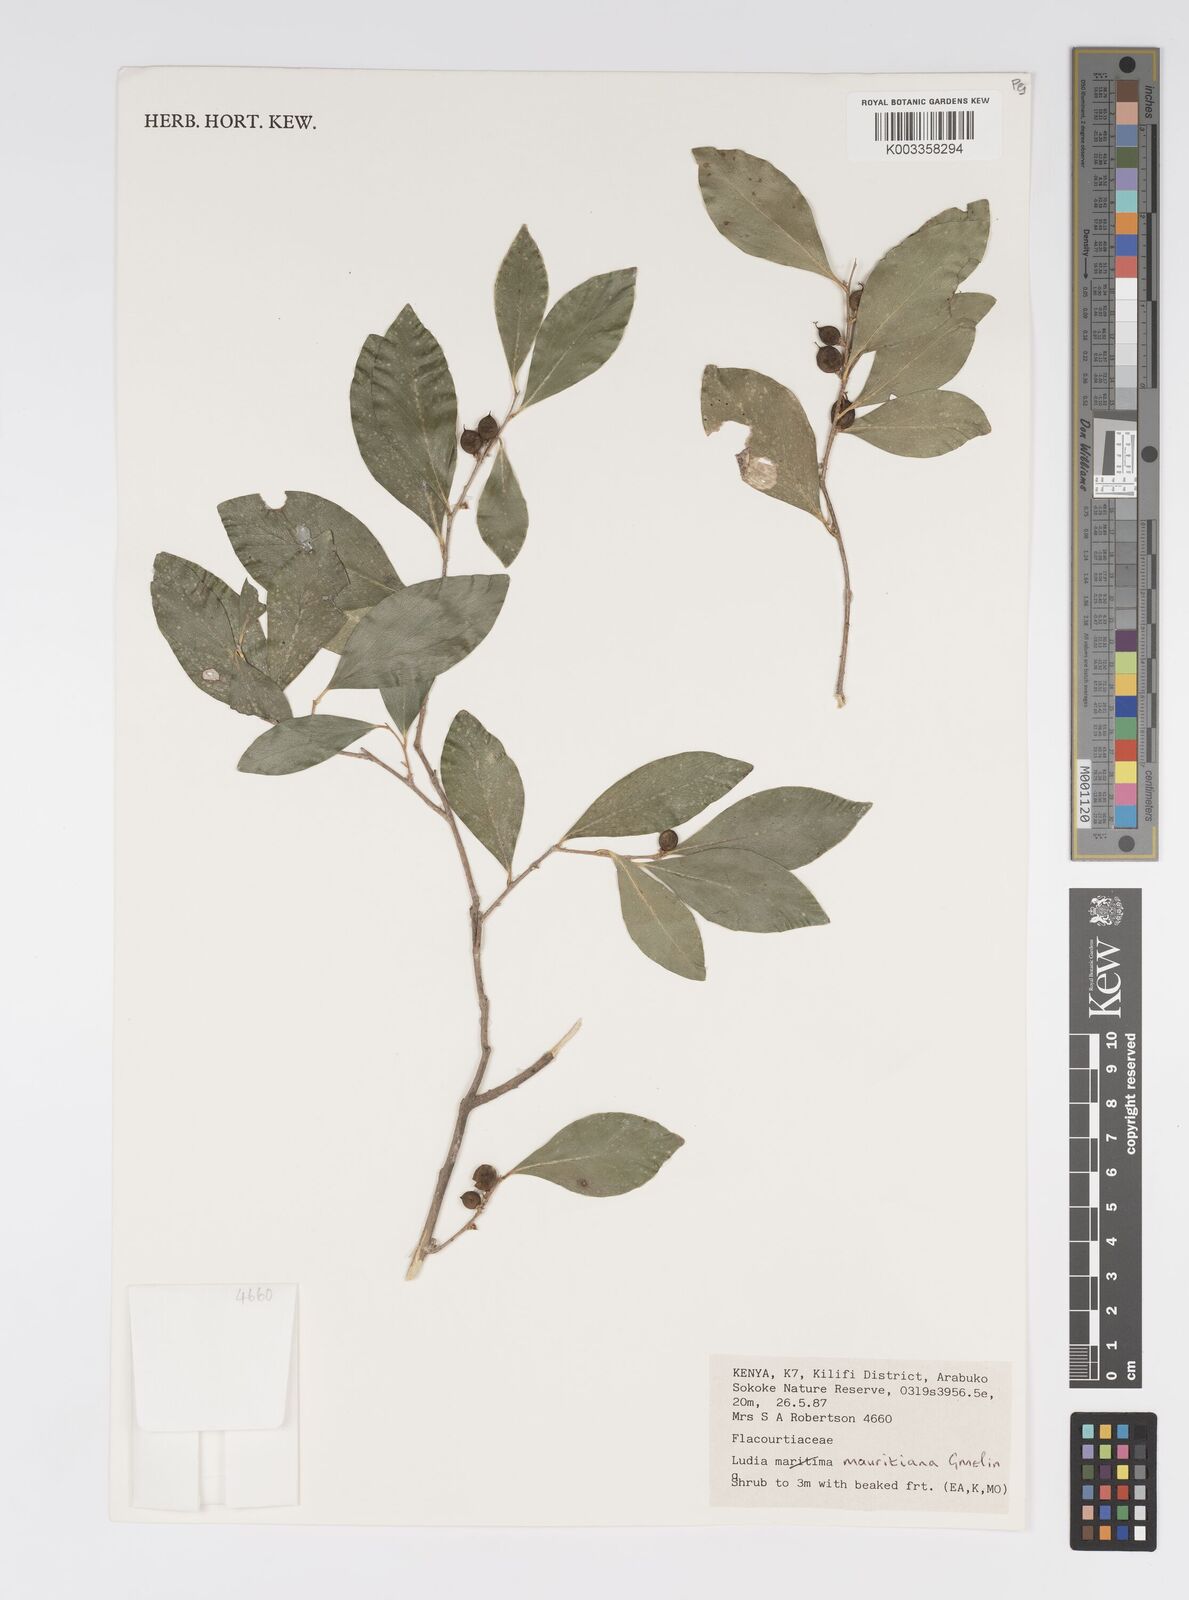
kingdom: Plantae
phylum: Tracheophyta
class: Magnoliopsida
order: Malpighiales
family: Salicaceae
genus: Ludia
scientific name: Ludia mauritiana
